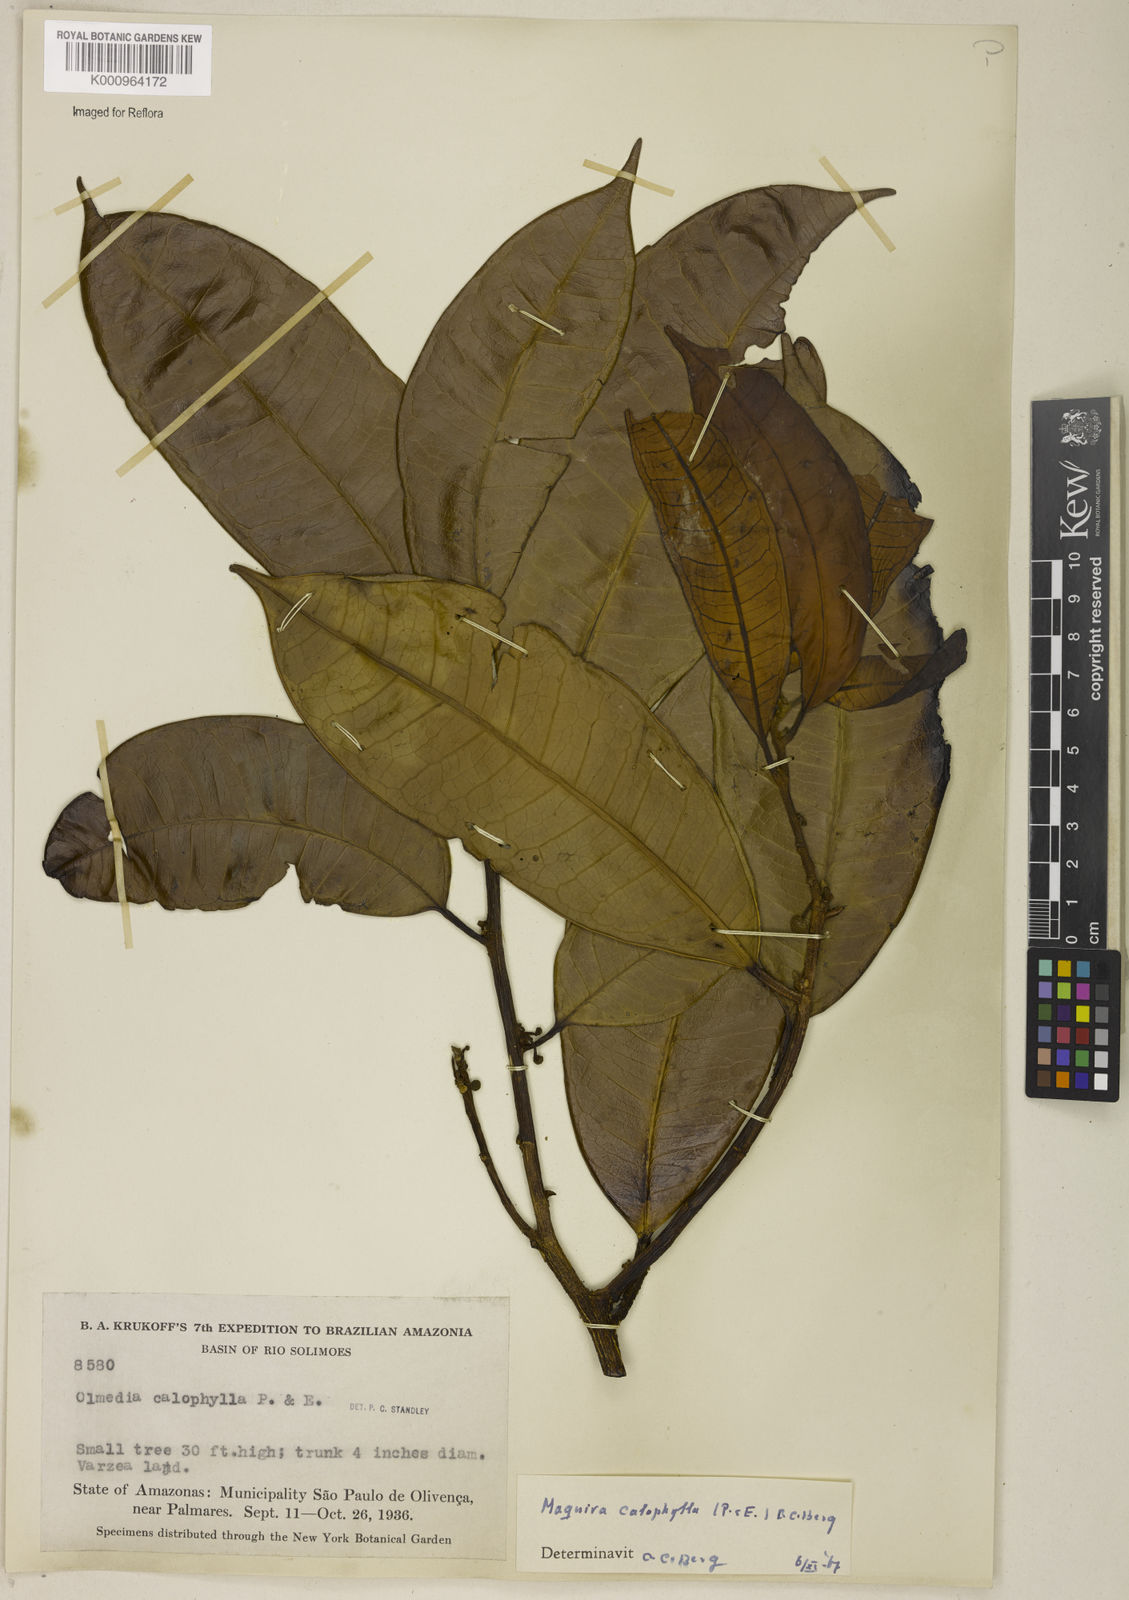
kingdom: Plantae
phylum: Tracheophyta
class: Magnoliopsida
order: Rosales
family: Moraceae
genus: Maquira
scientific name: Maquira calophylla
